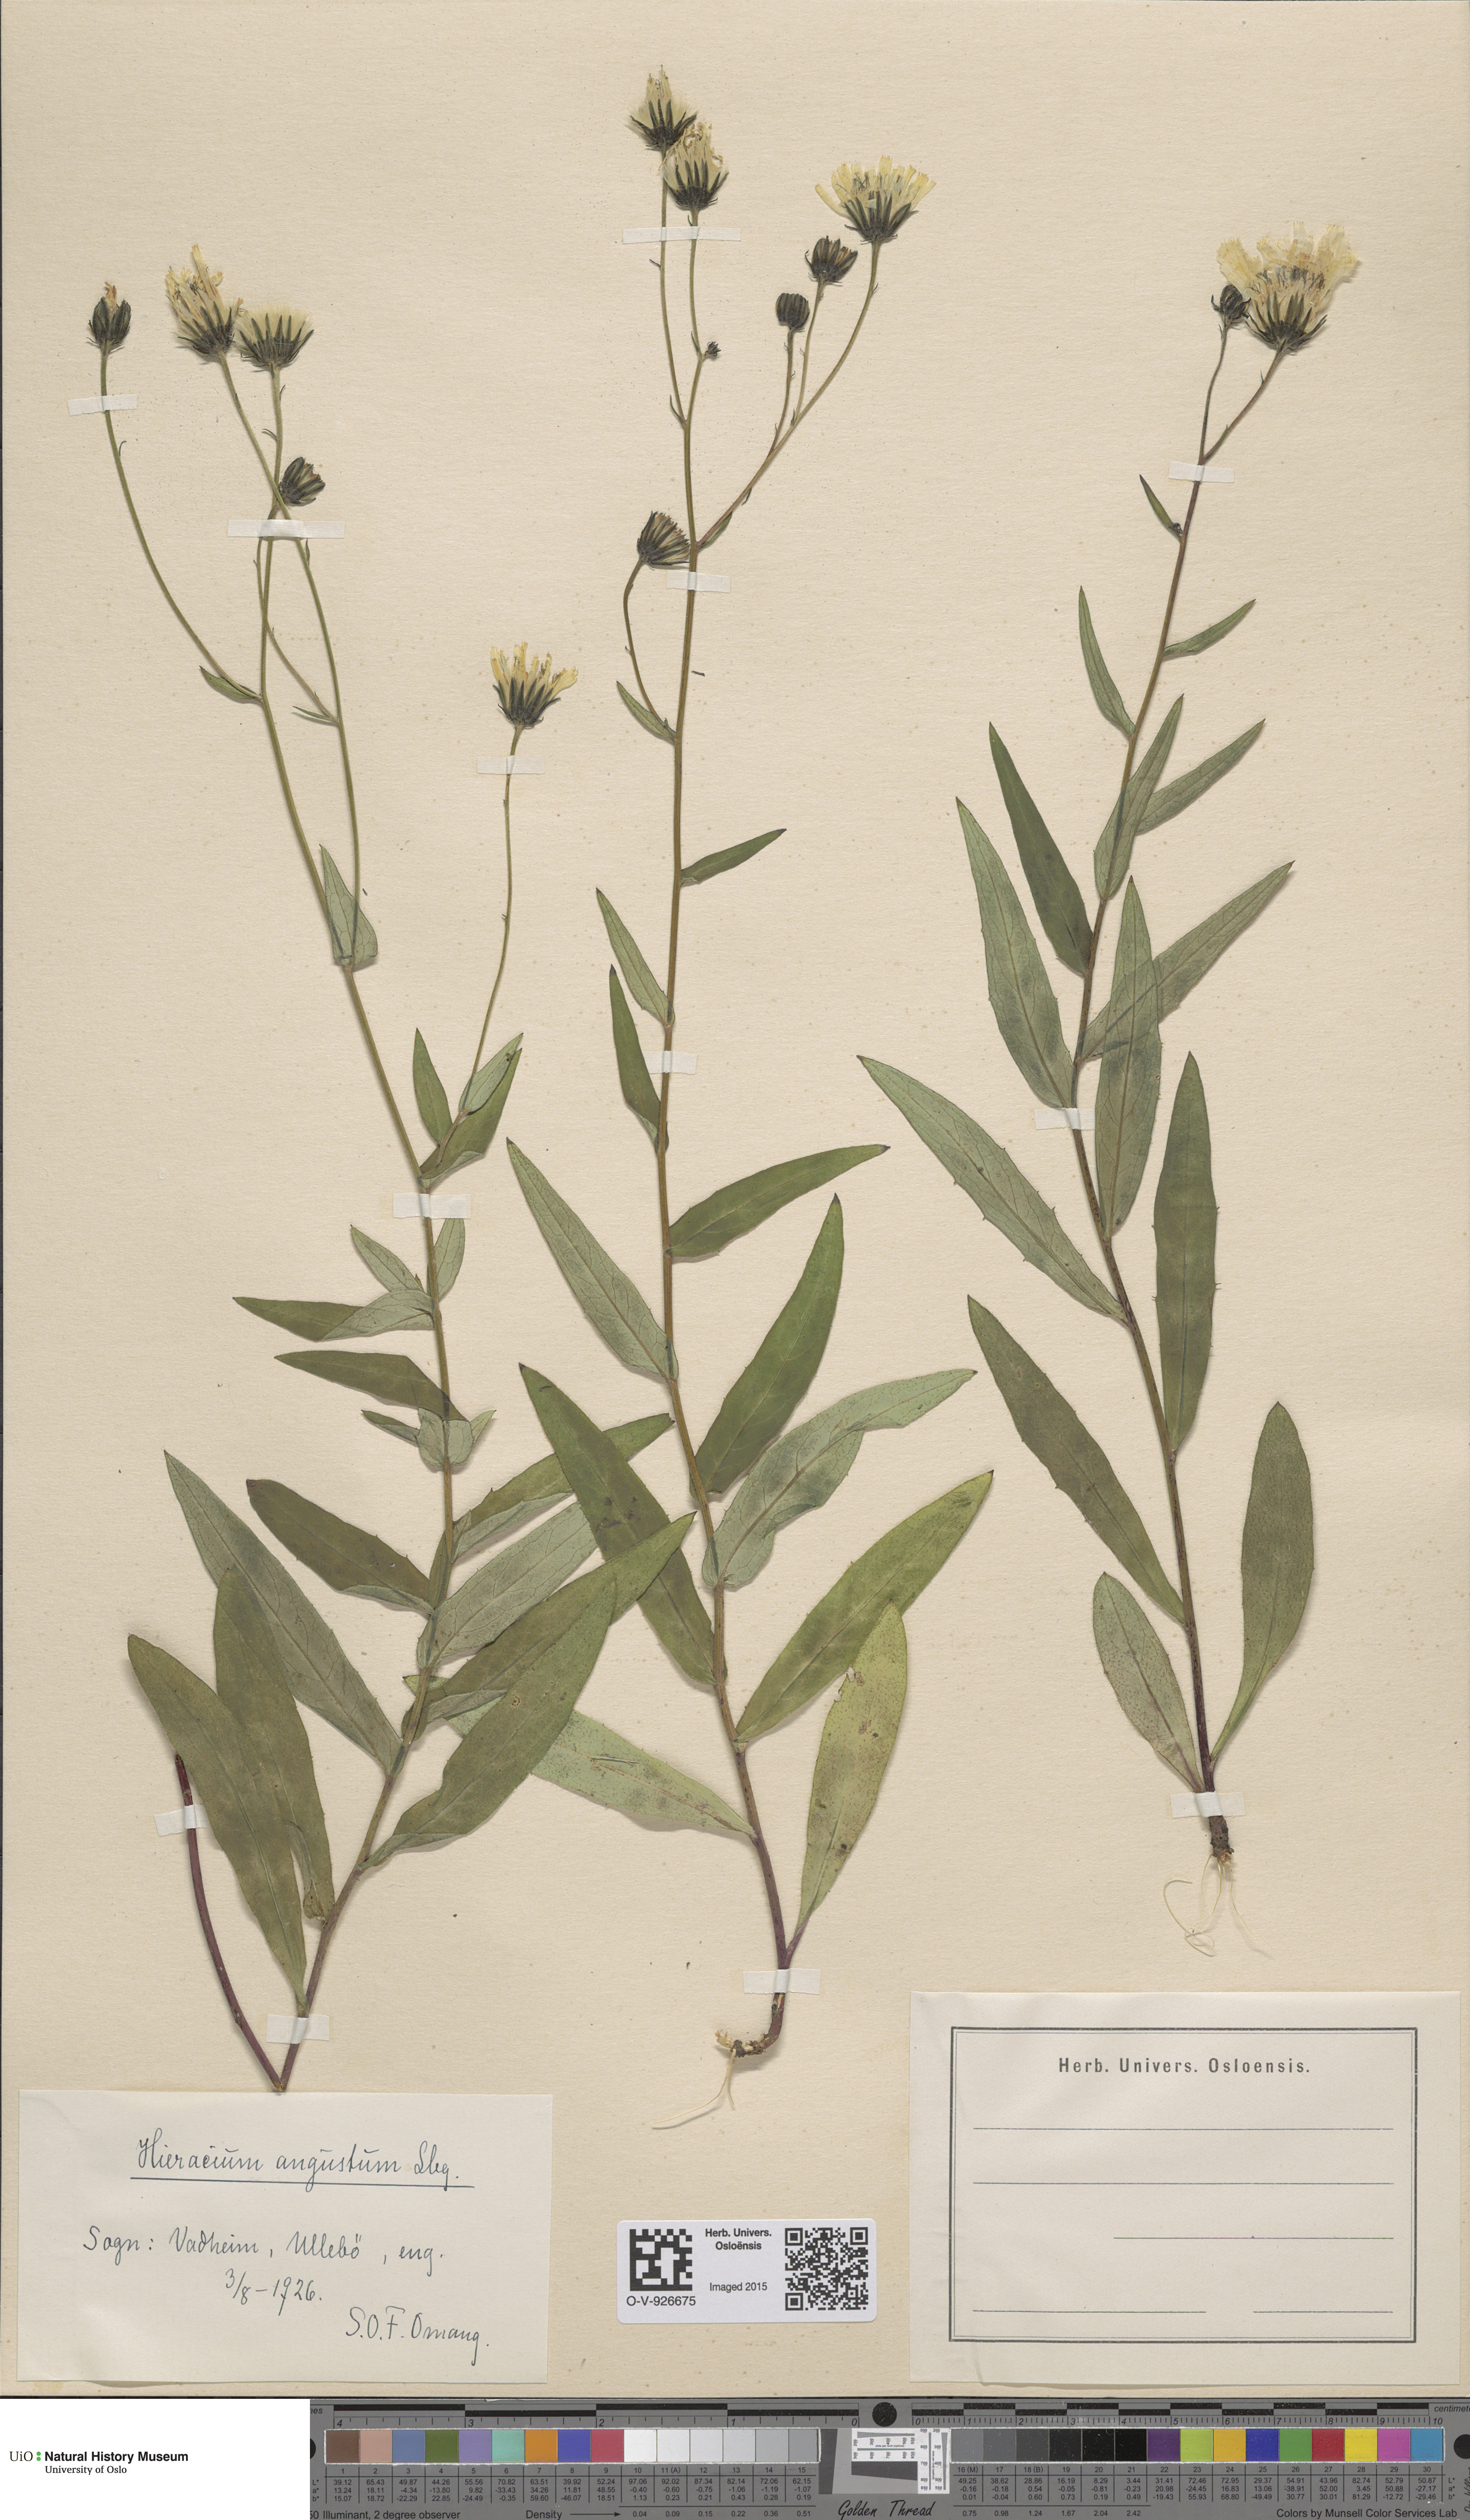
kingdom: Plantae
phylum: Tracheophyta
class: Magnoliopsida
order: Asterales
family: Asteraceae
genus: Hieracium
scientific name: Hieracium angustum
